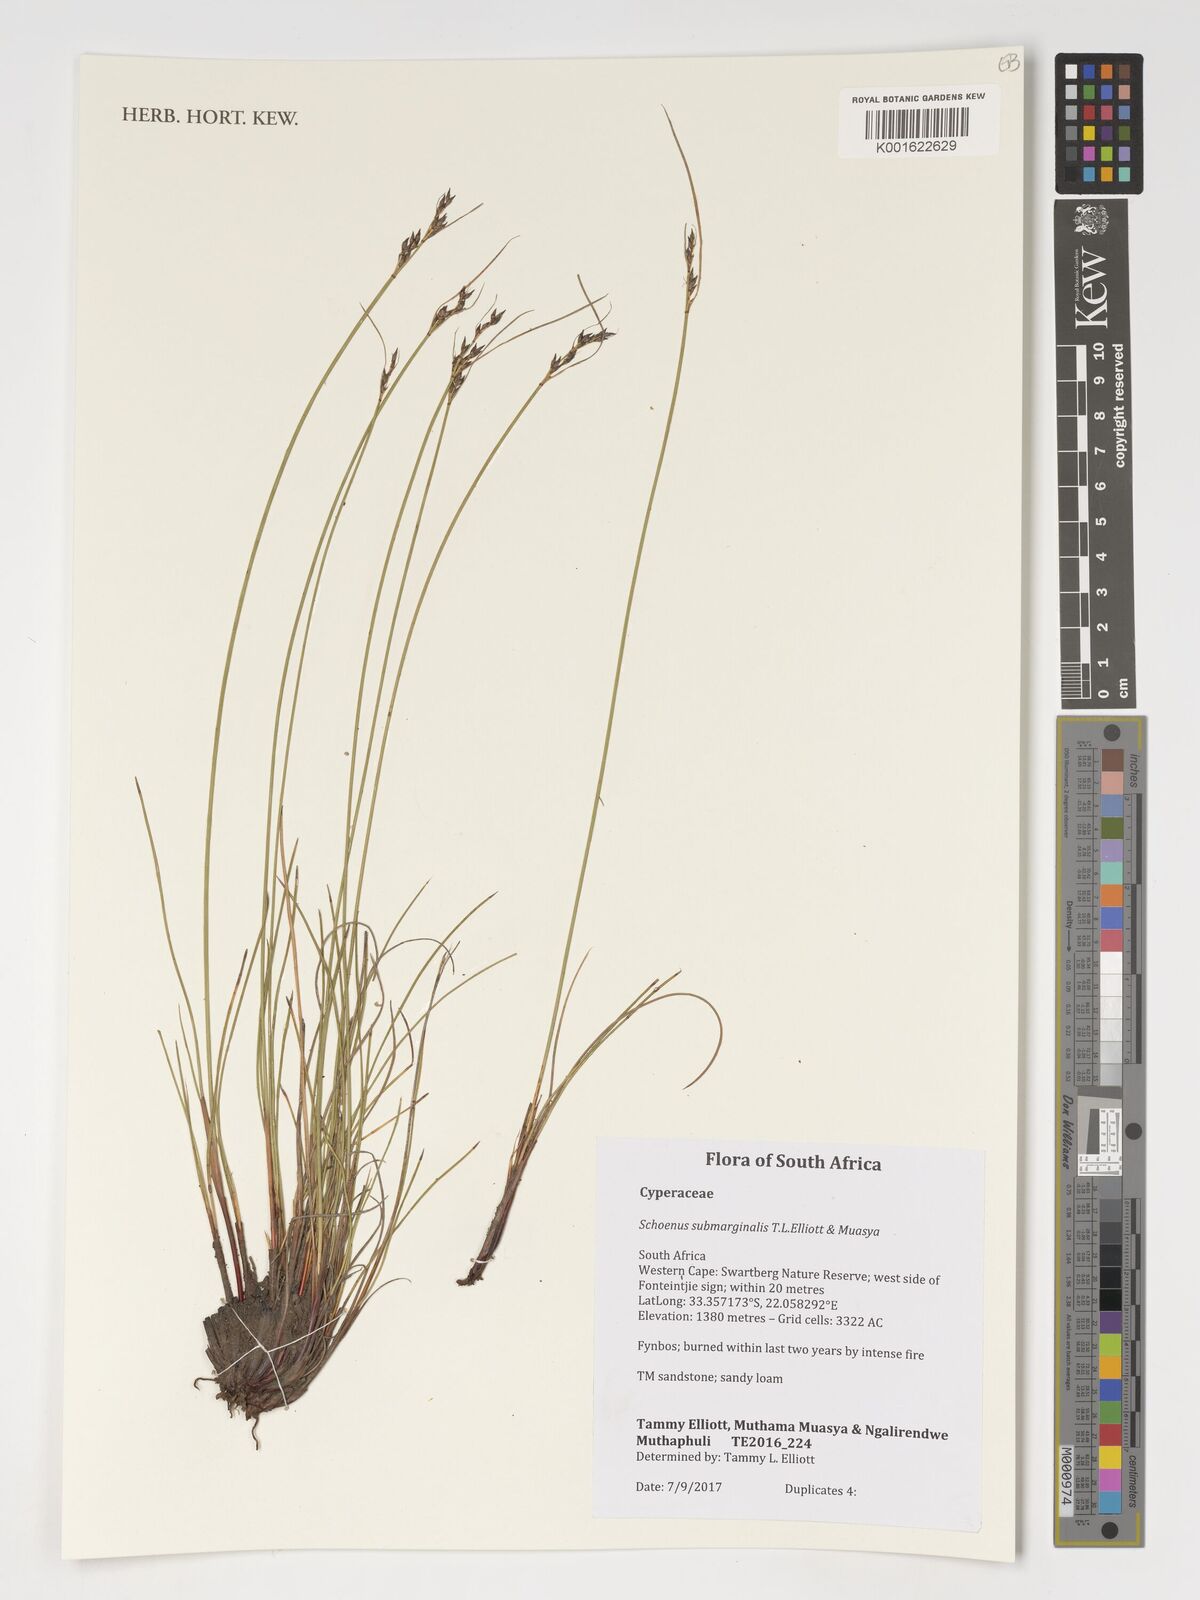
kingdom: Plantae
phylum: Tracheophyta
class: Liliopsida
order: Poales
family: Cyperaceae
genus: Schoenus
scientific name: Schoenus submarginalis
